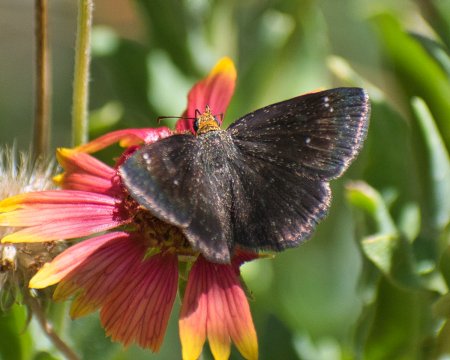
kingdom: Animalia
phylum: Arthropoda
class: Insecta
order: Lepidoptera
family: Hesperiidae
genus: Staphylus
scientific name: Staphylus ceos
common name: Golden-headed Scallopwing
